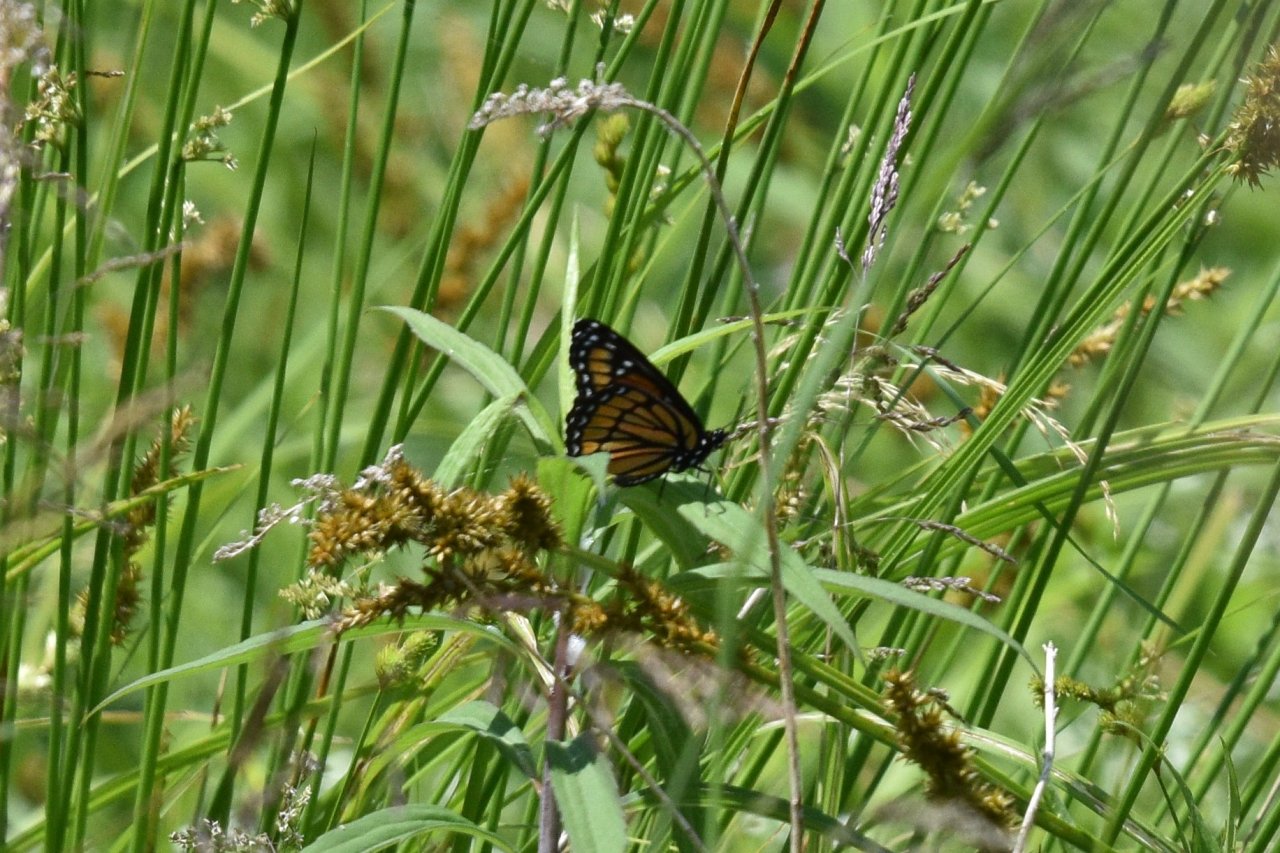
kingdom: Animalia
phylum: Arthropoda
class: Insecta
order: Lepidoptera
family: Nymphalidae
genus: Limenitis
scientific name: Limenitis archippus
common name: Viceroy
